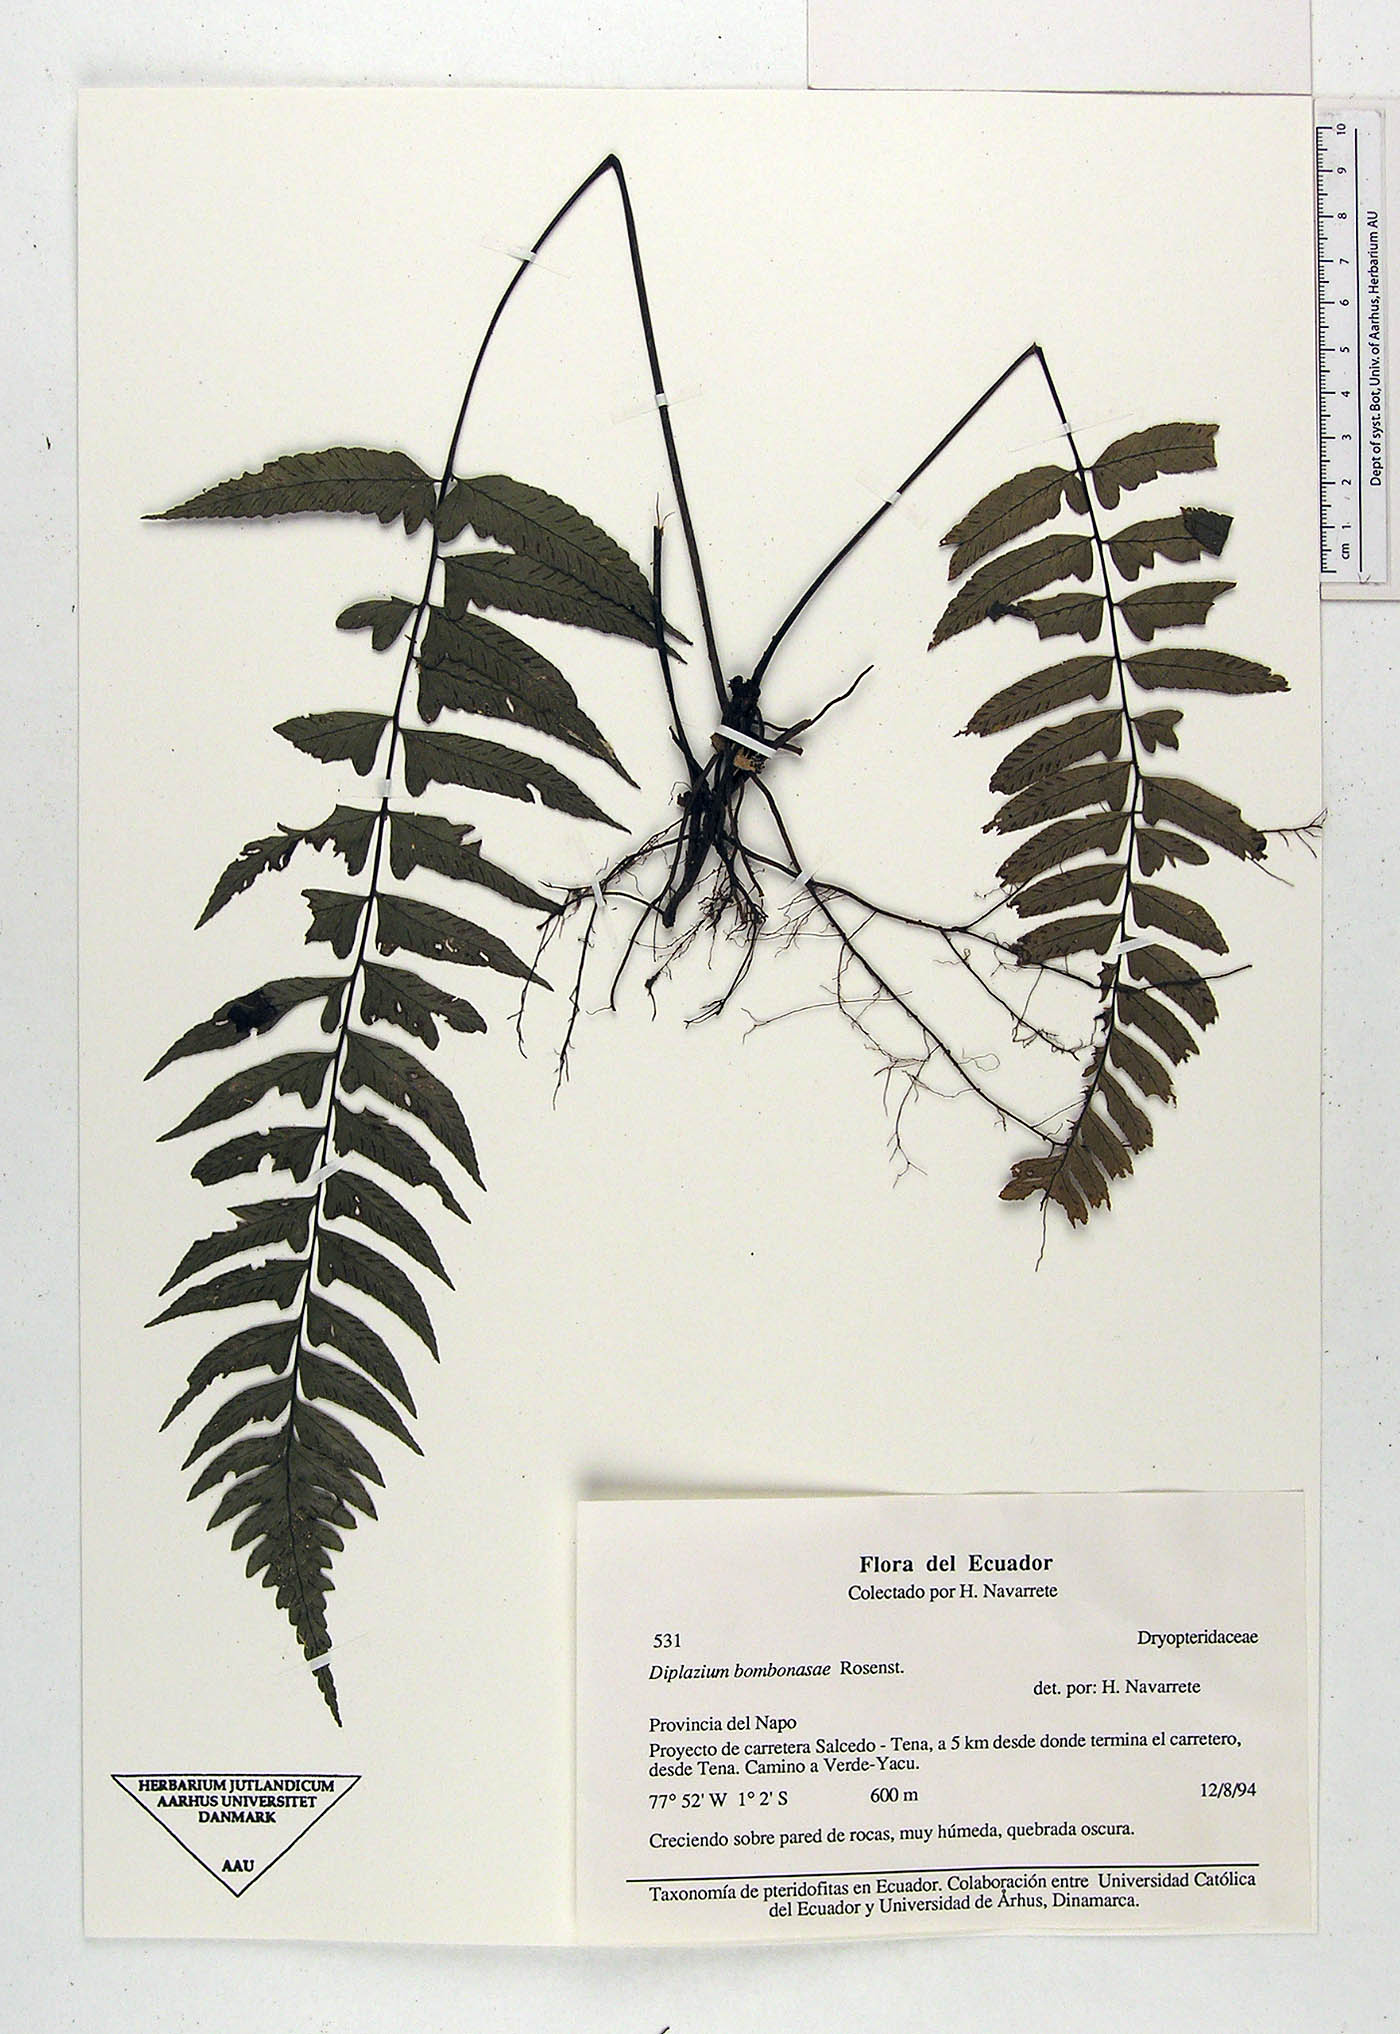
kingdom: Plantae
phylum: Tracheophyta
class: Polypodiopsida
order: Polypodiales
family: Athyriaceae
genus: Diplazium
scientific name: Diplazium bombonasae
